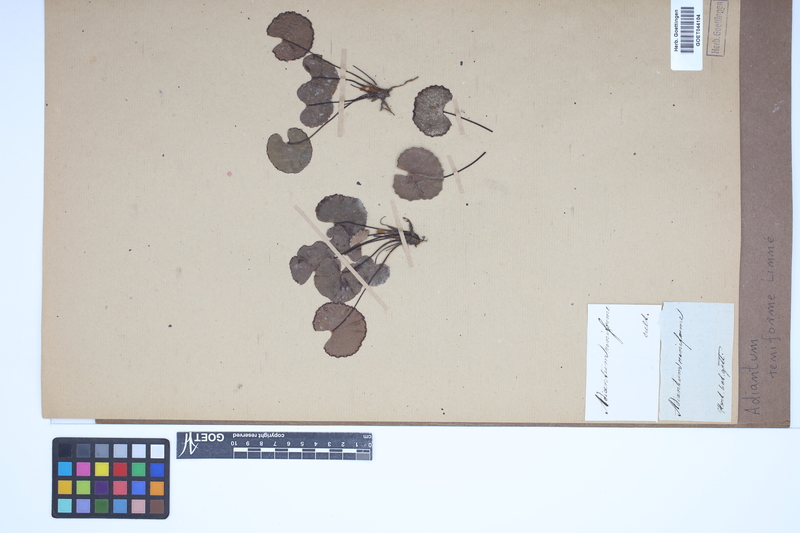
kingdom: Plantae
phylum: Tracheophyta
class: Polypodiopsida
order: Polypodiales
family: Pteridaceae
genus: Adiantum
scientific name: Adiantum reniforme
